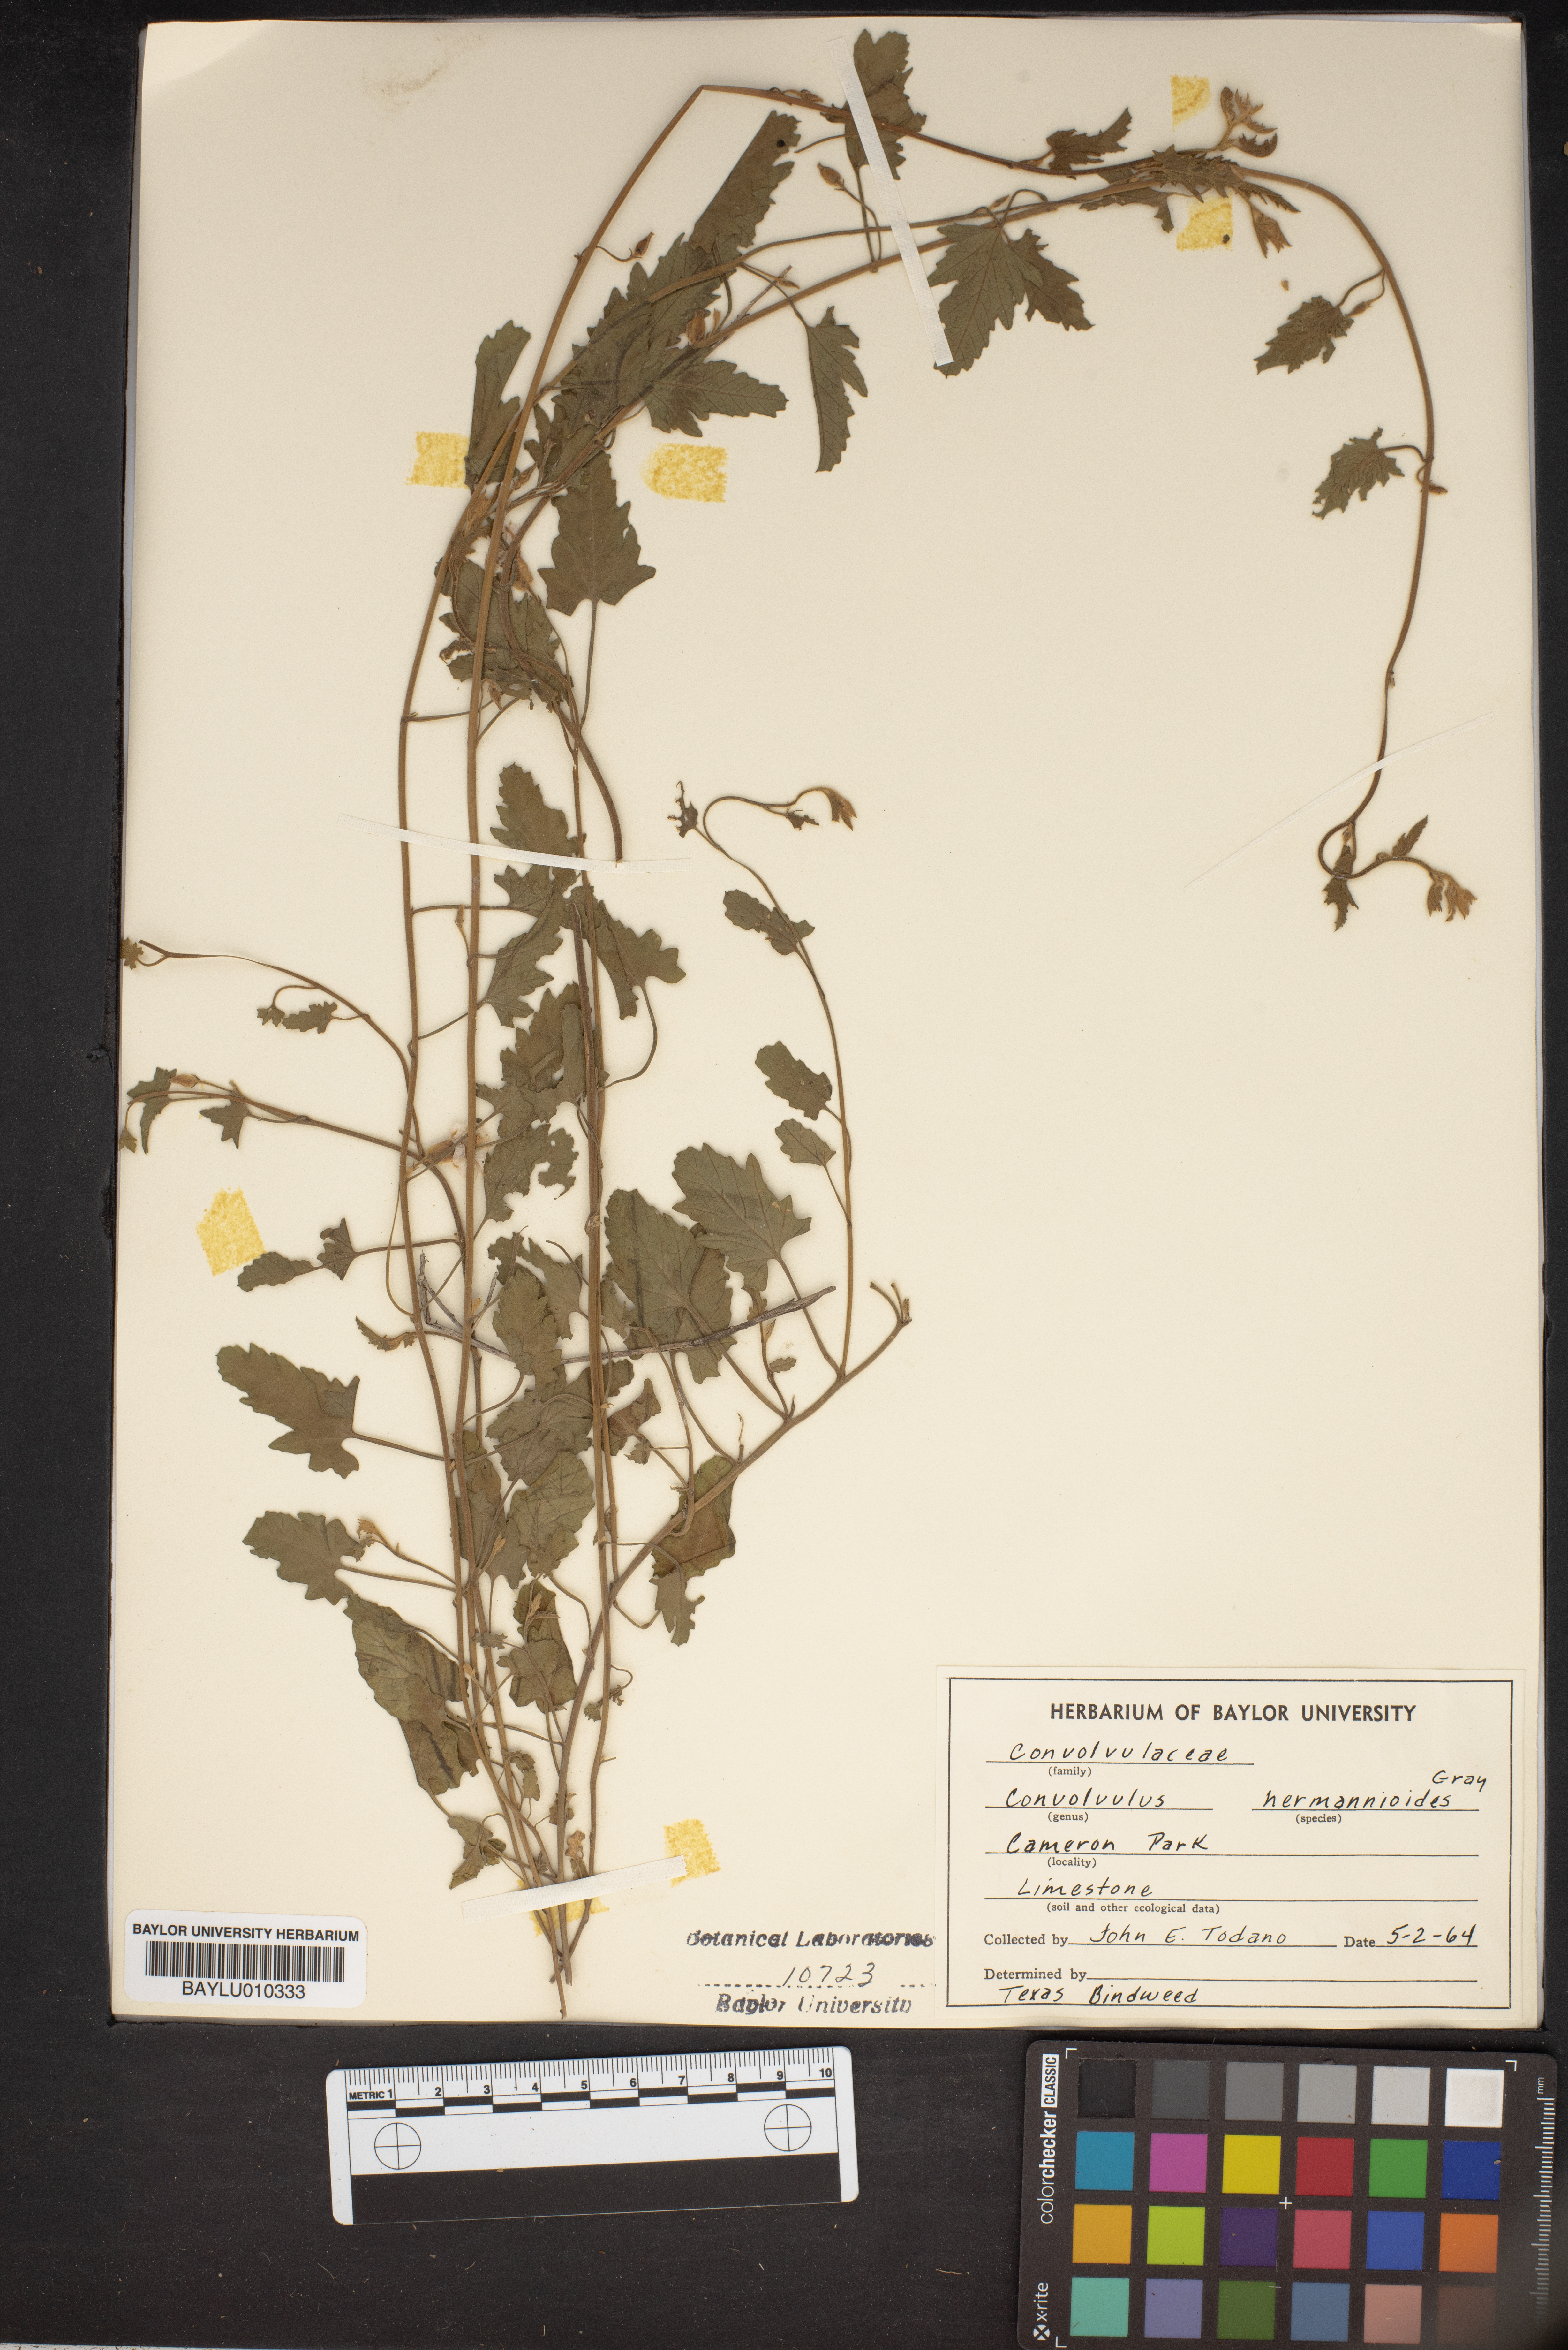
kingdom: Plantae
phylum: Tracheophyta
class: Magnoliopsida
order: Solanales
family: Convolvulaceae
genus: Convolvulus
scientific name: Convolvulus equitans
